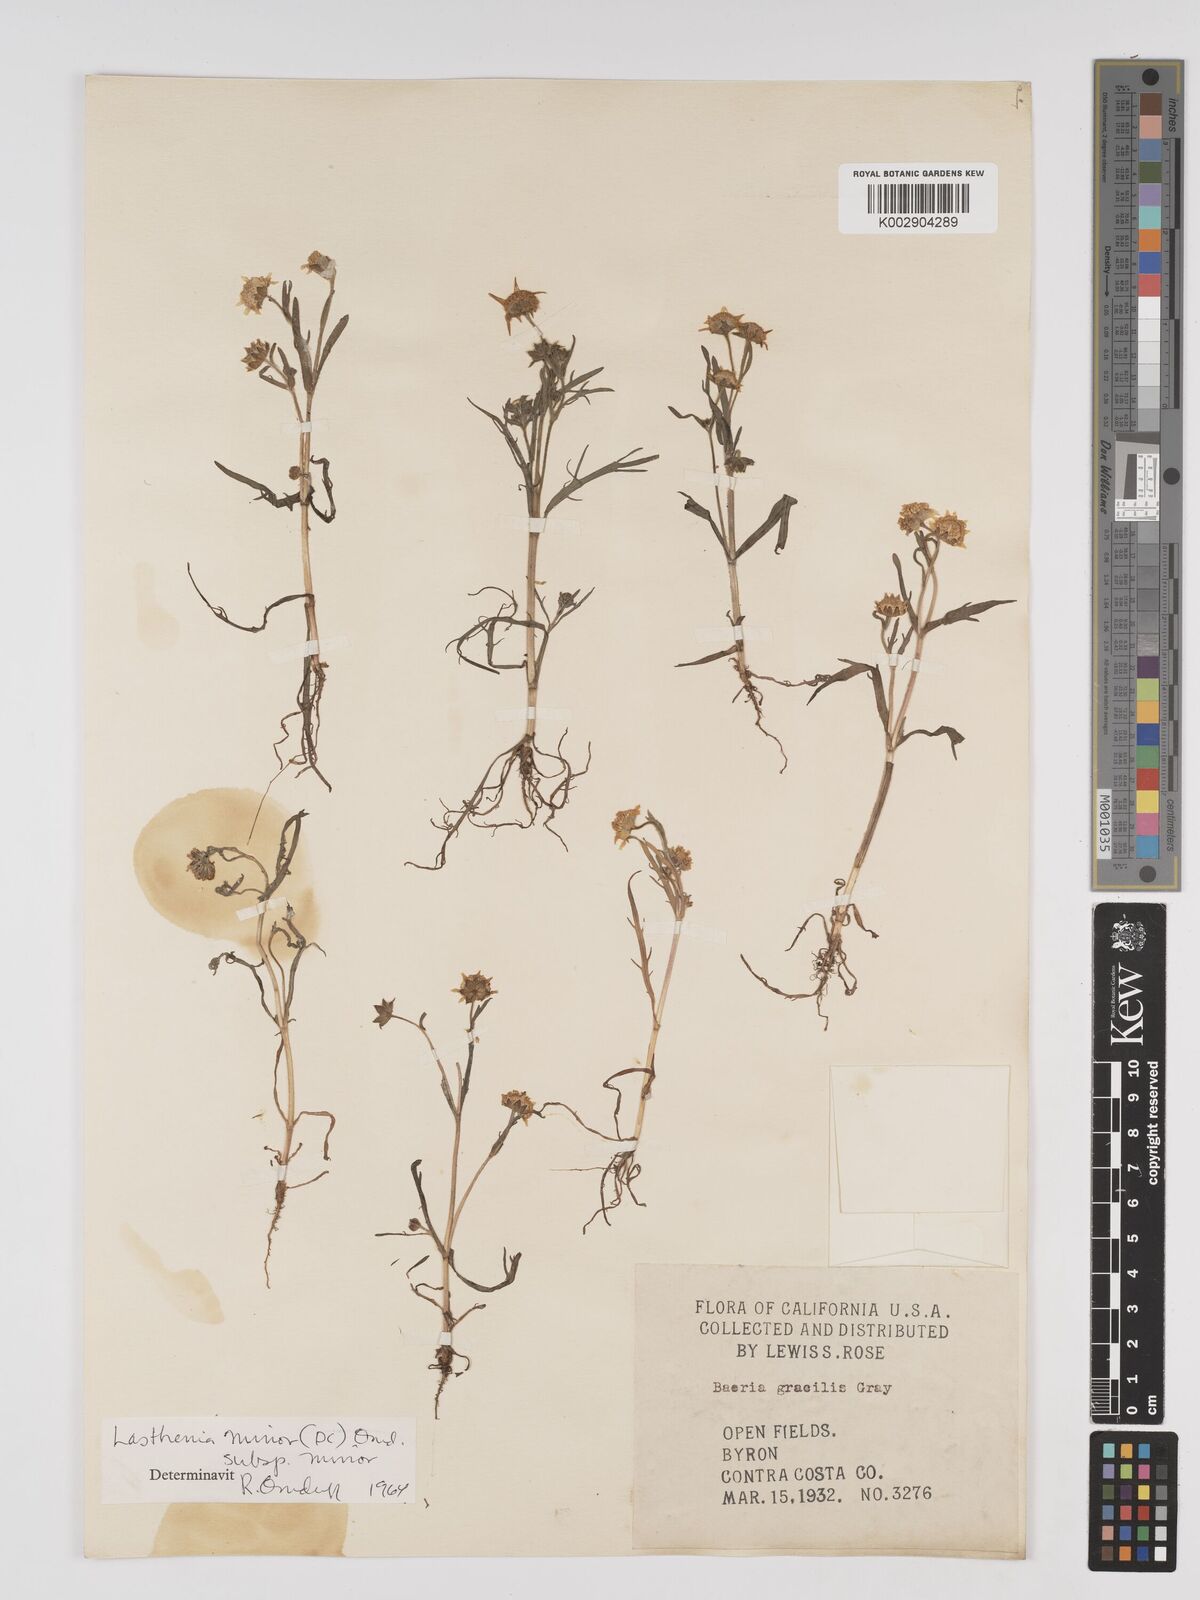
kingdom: Plantae
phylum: Tracheophyta
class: Magnoliopsida
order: Asterales
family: Asteraceae
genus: Lasthenia
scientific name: Lasthenia minor
